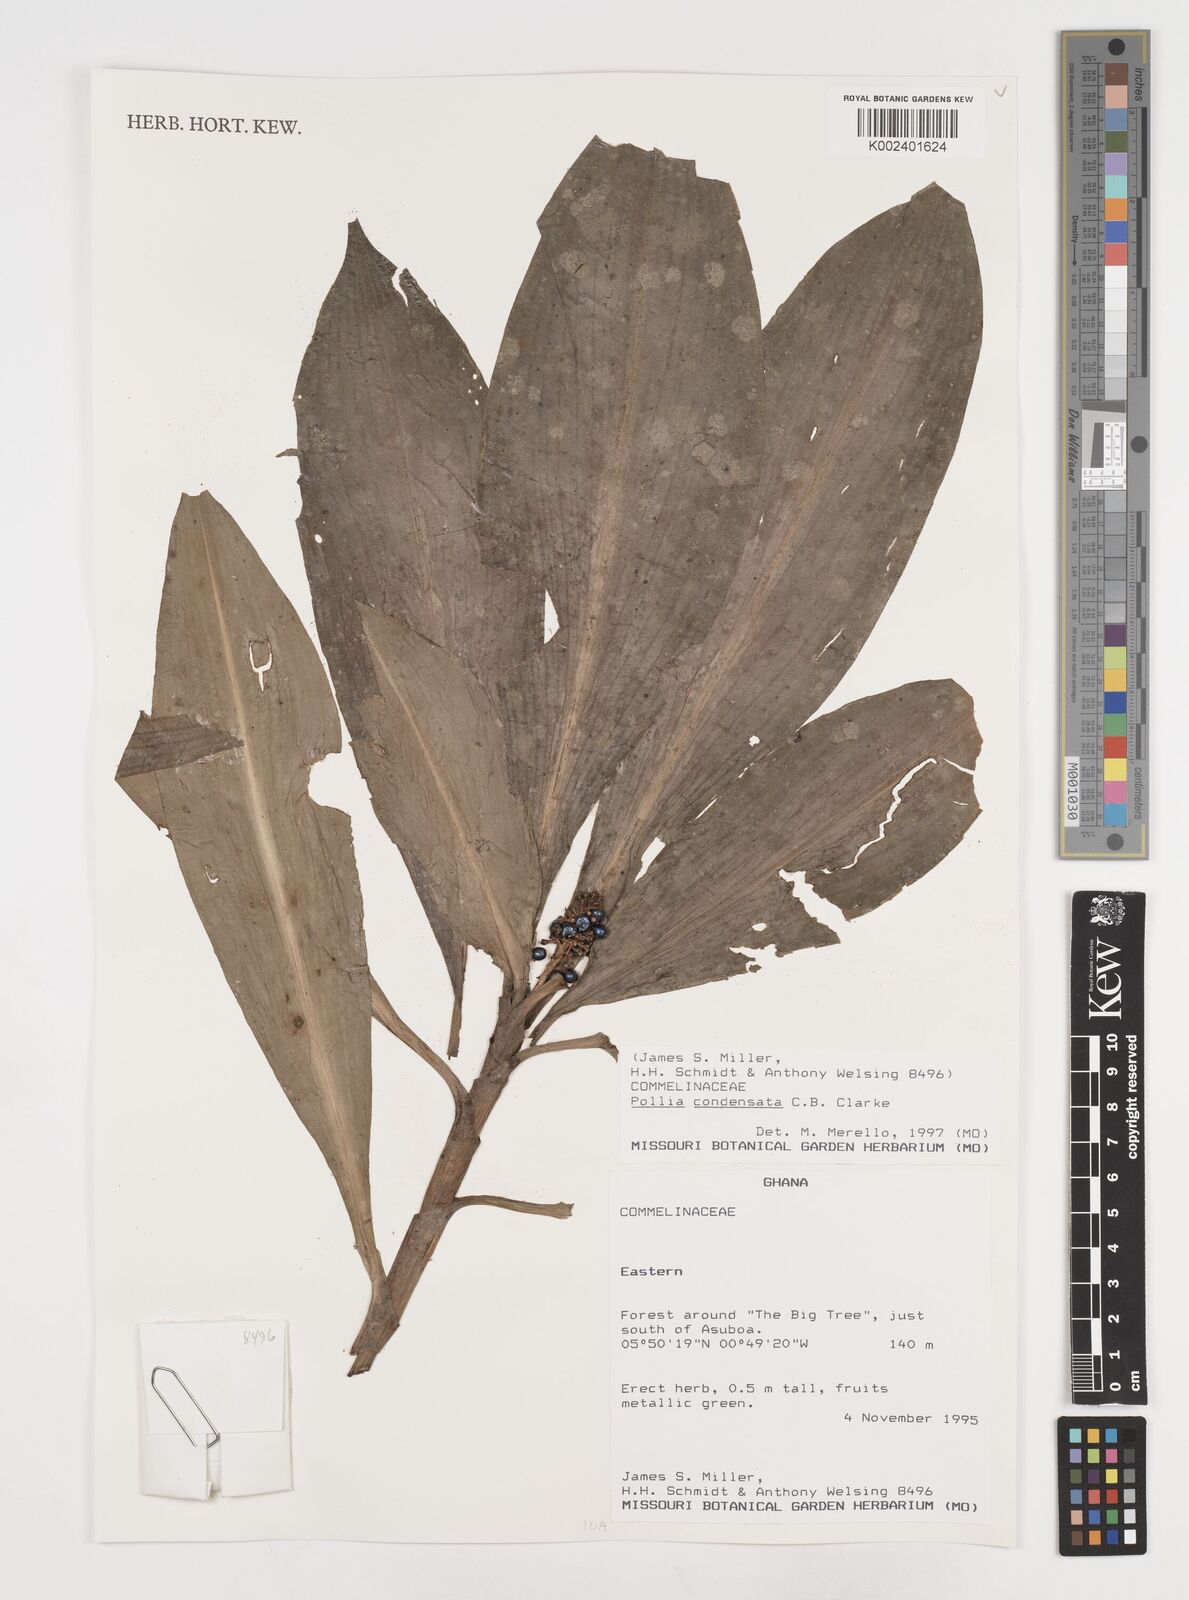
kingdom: Plantae
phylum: Tracheophyta
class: Liliopsida
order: Commelinales
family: Commelinaceae
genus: Pollia
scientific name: Pollia condensata
